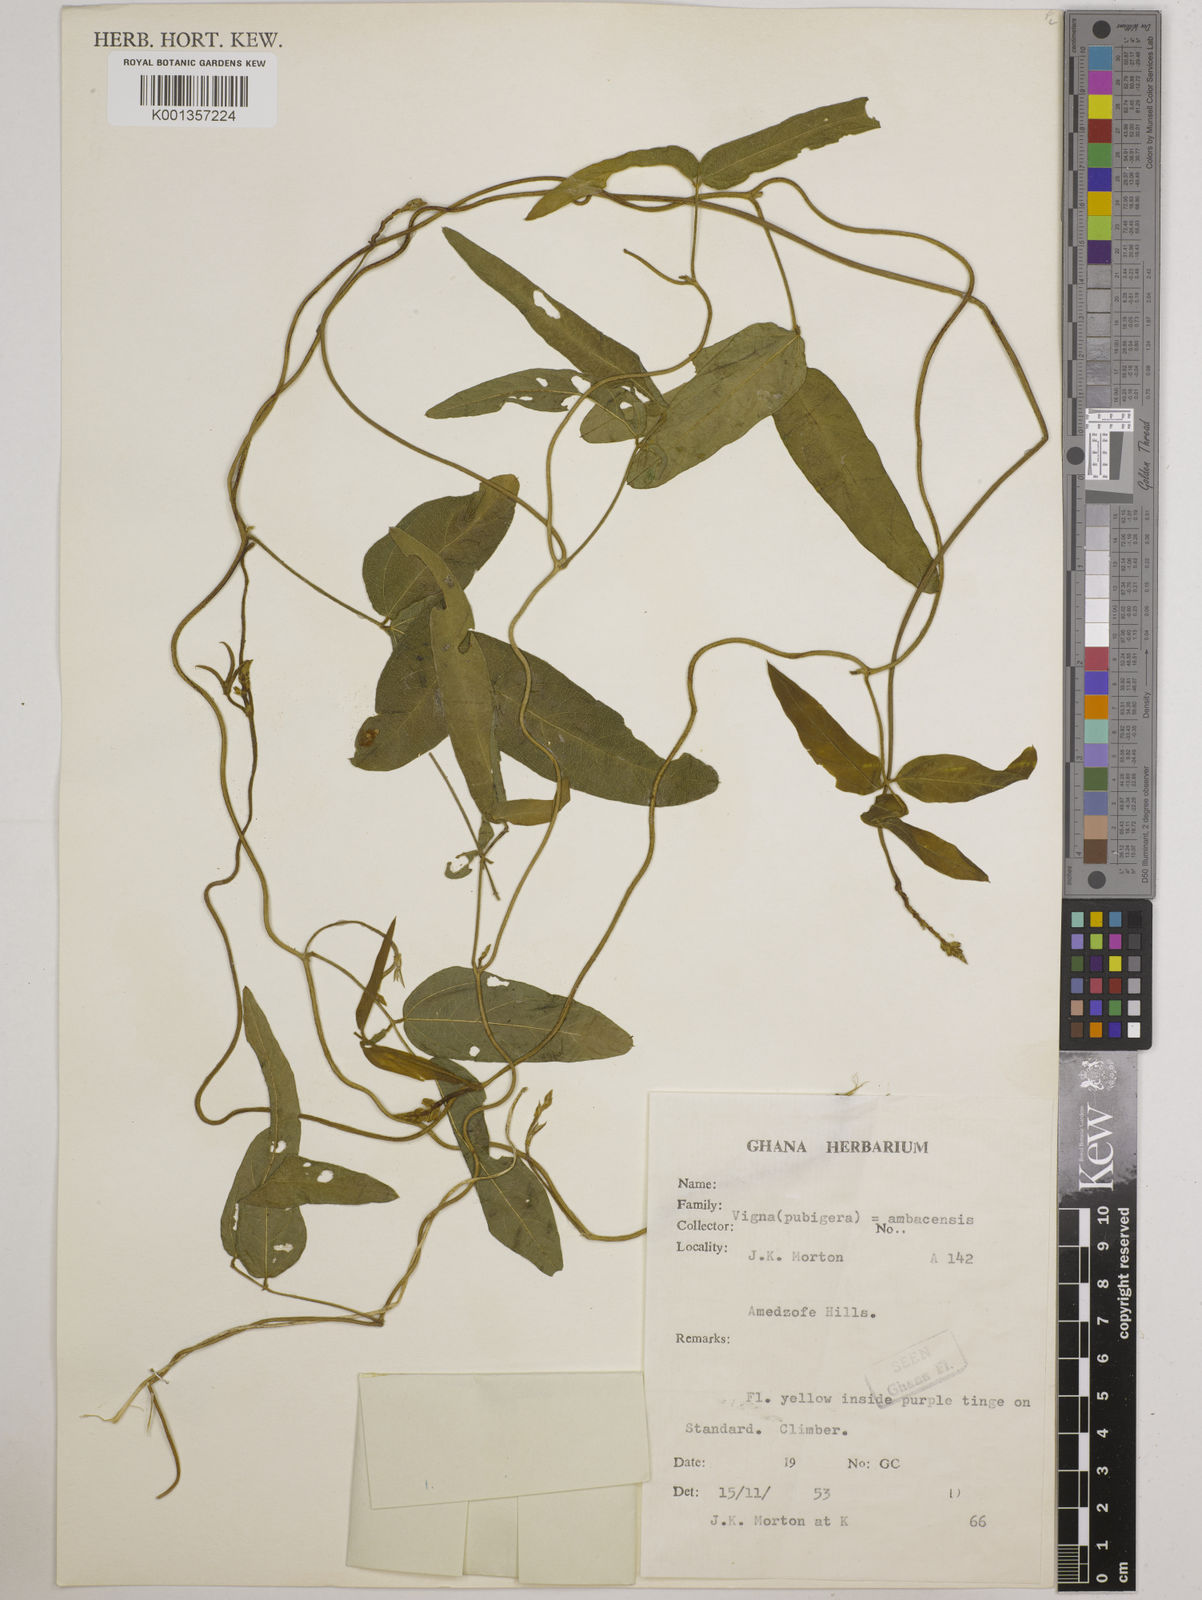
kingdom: Plantae
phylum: Tracheophyta
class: Magnoliopsida
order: Fabales
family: Fabaceae
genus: Vigna
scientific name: Vigna ambacensis
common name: Tsarkiyan zomo
